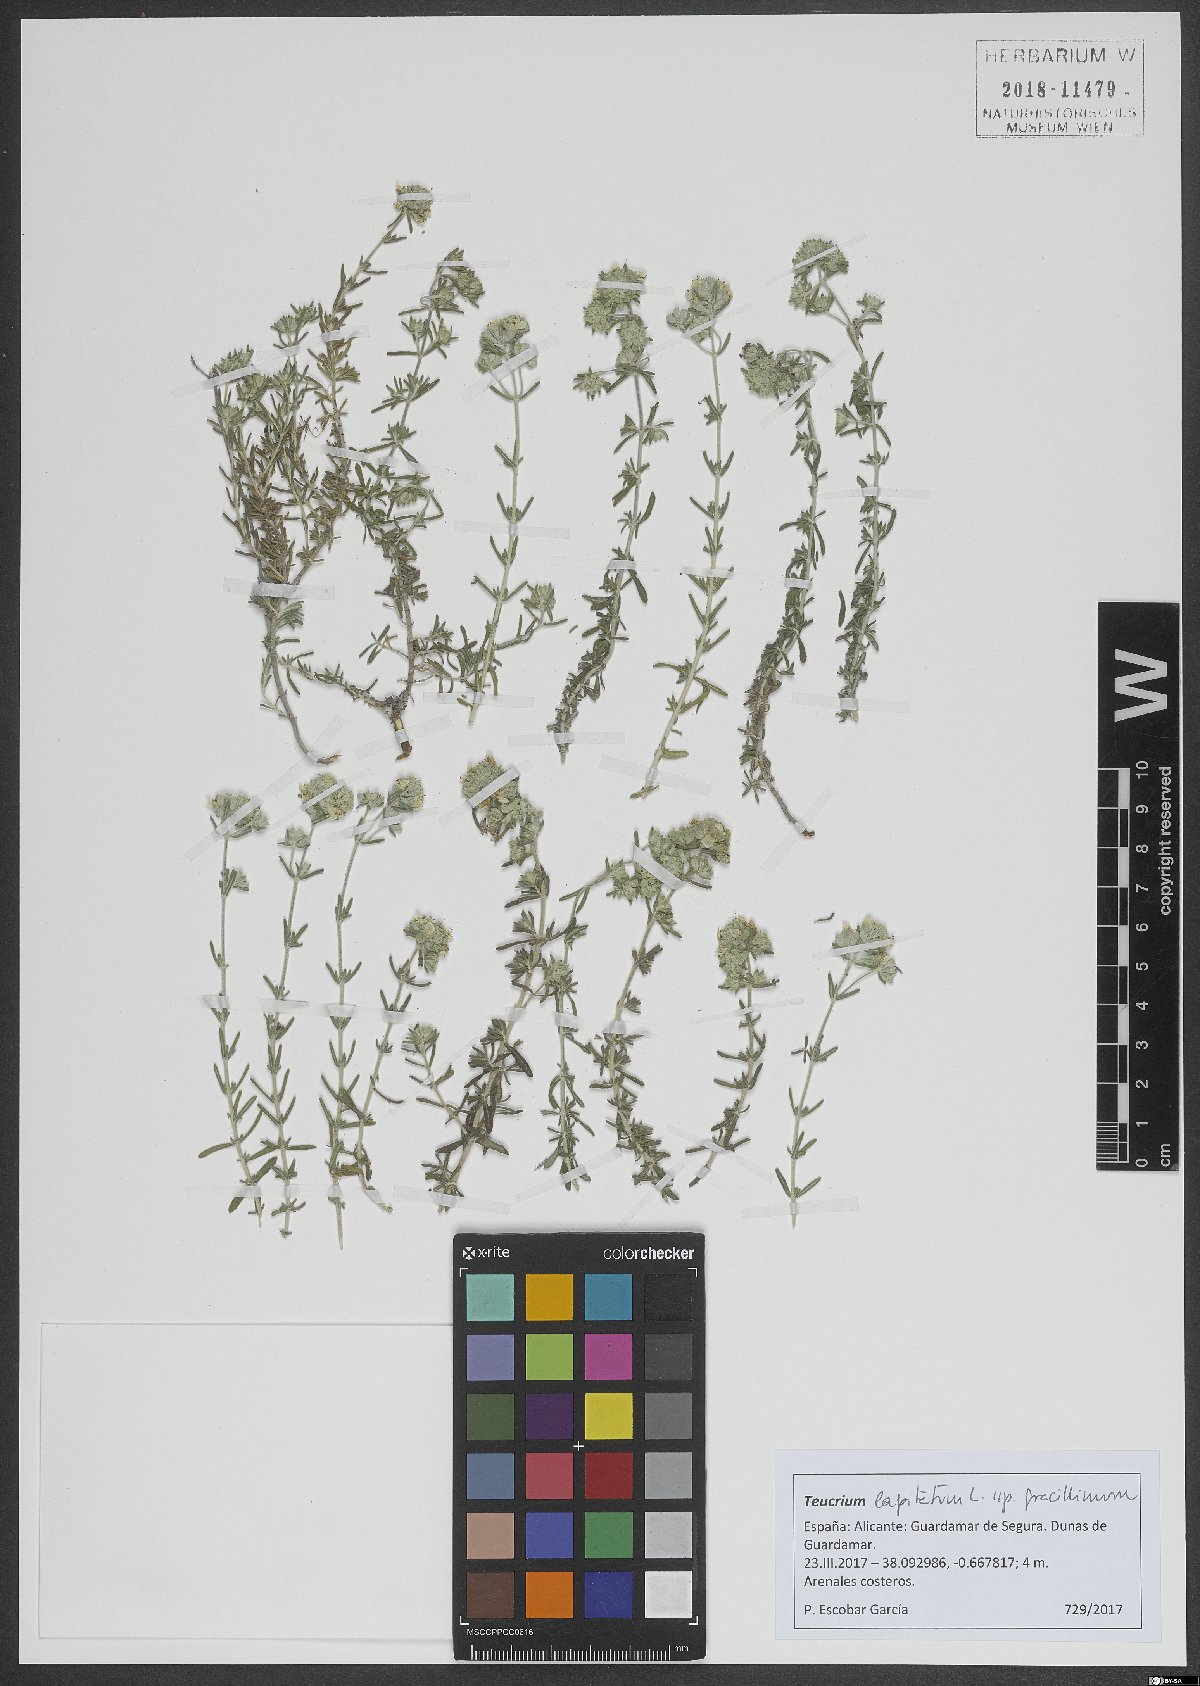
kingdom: Plantae
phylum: Tracheophyta
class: Magnoliopsida
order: Lamiales
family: Lamiaceae
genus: Teucrium
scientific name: Teucrium capitatum
